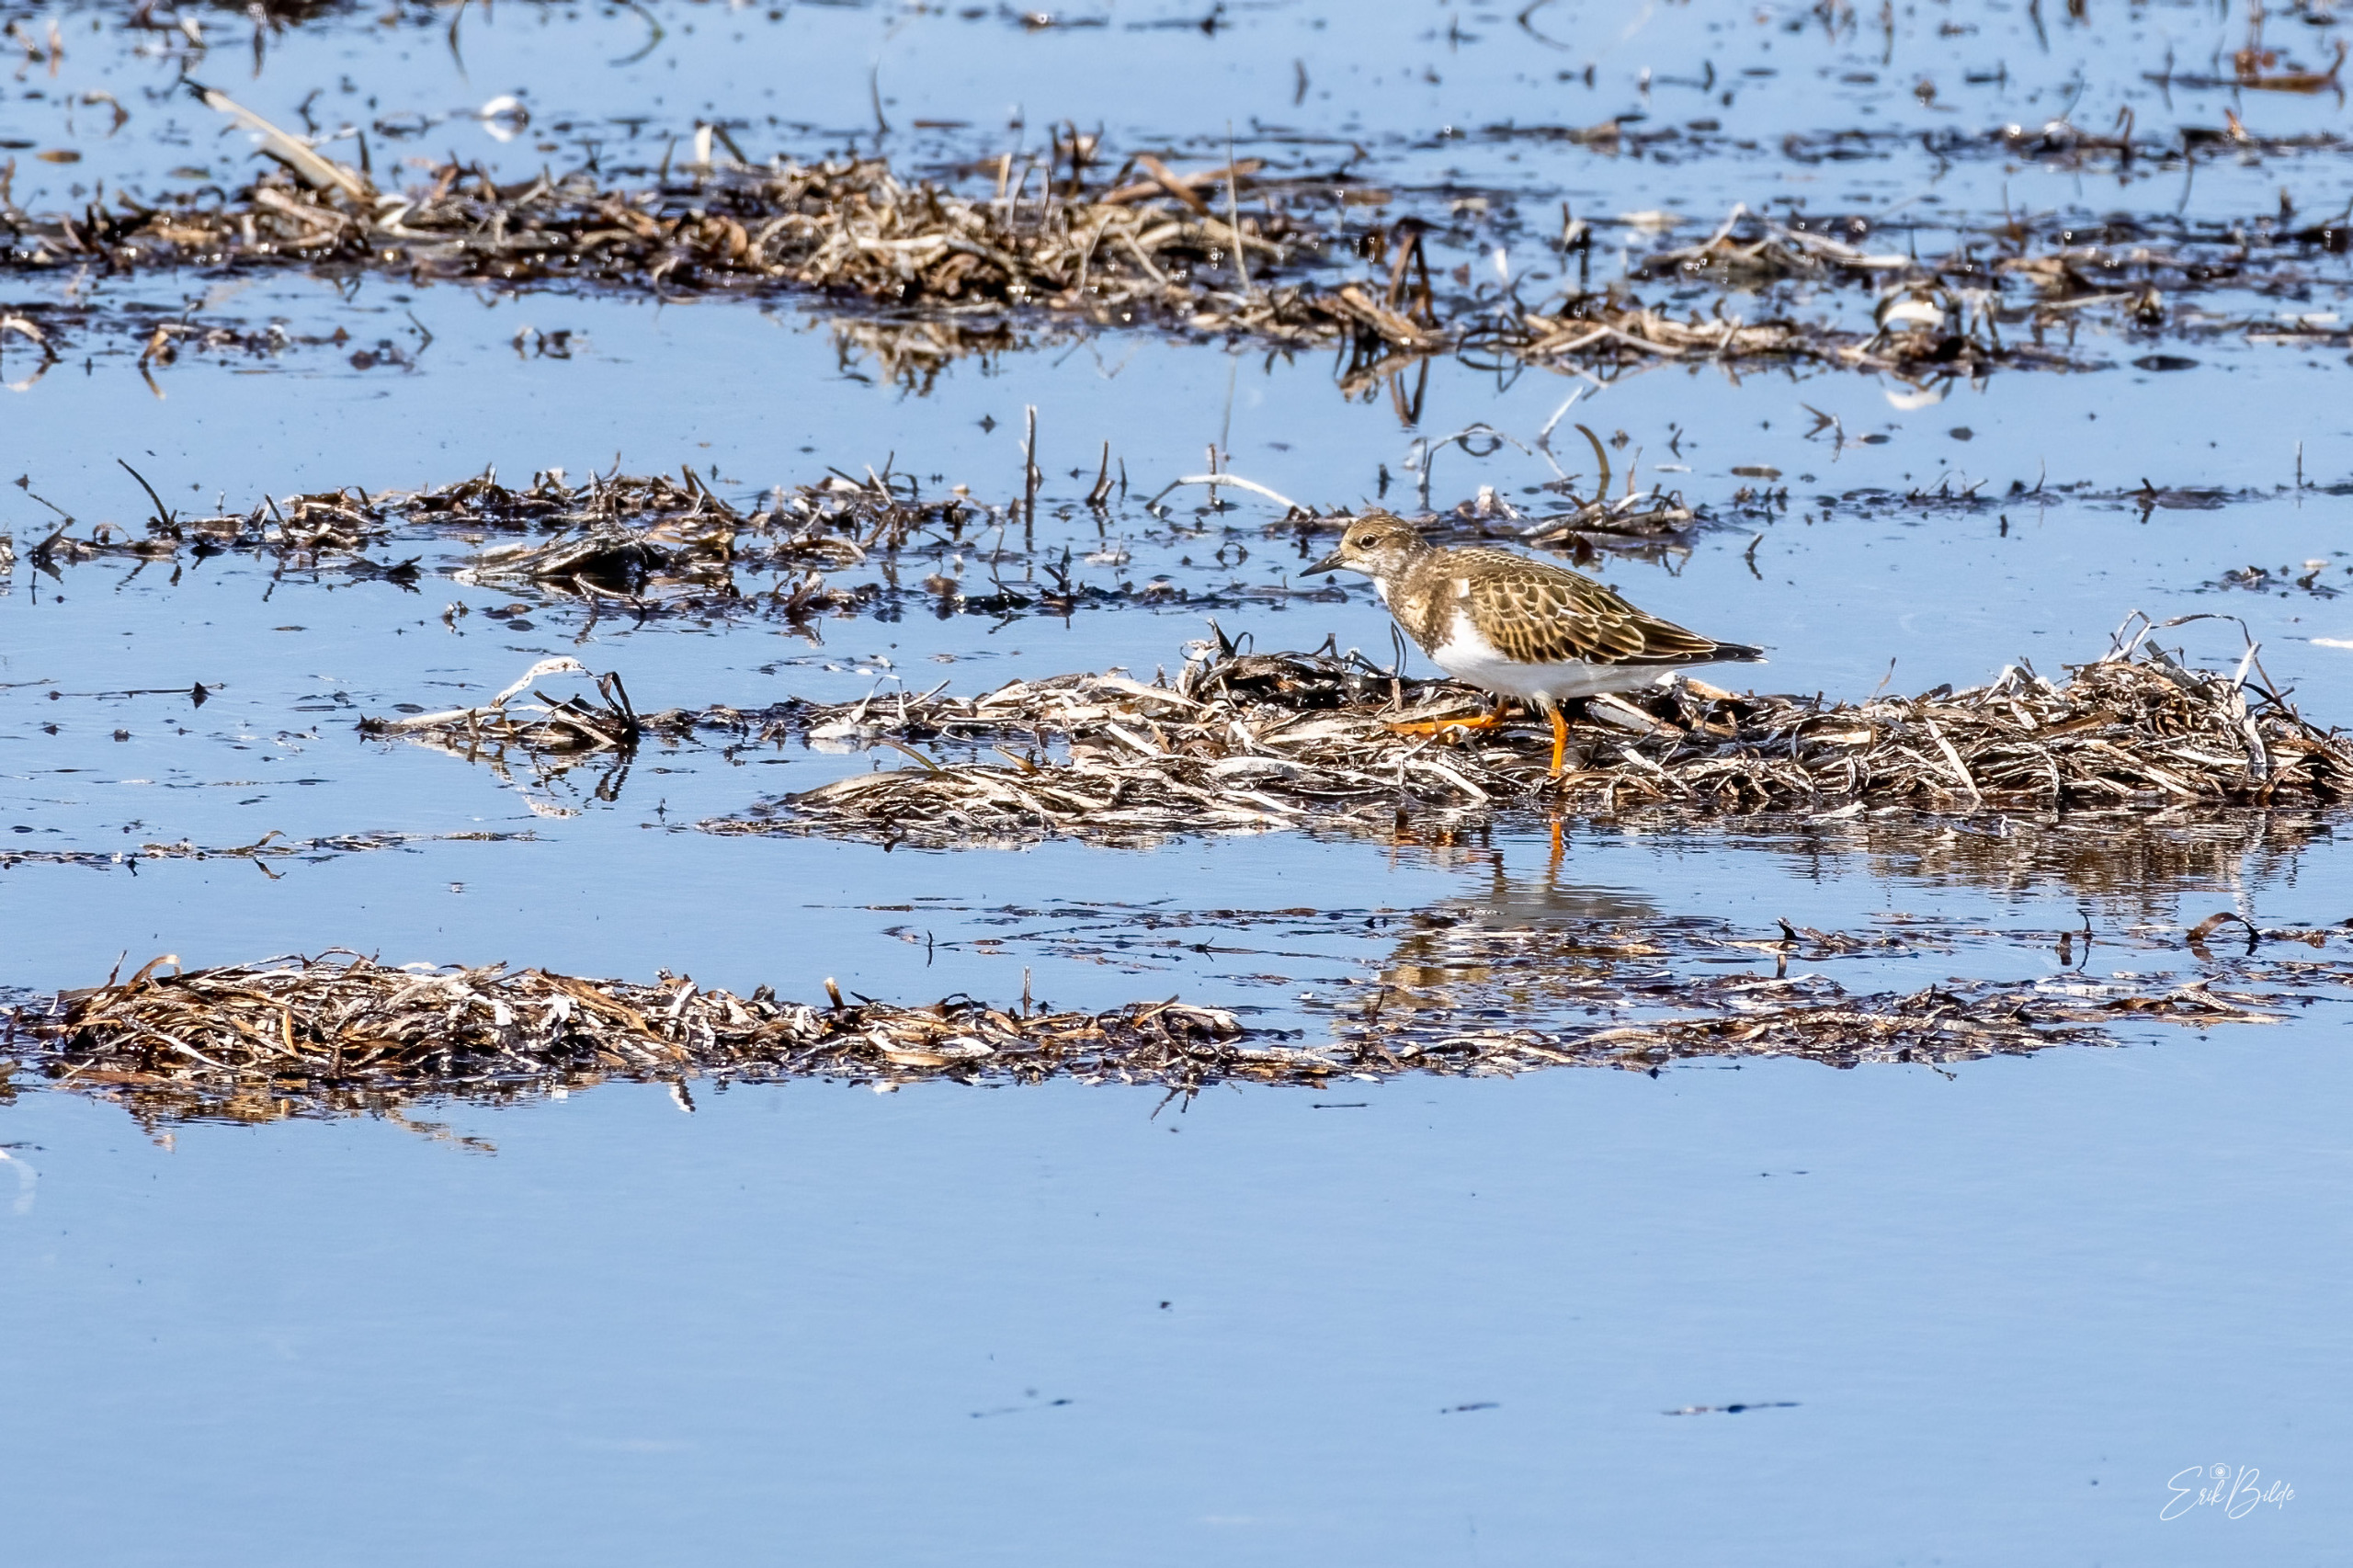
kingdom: Animalia
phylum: Chordata
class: Aves
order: Charadriiformes
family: Scolopacidae
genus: Arenaria
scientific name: Arenaria interpres
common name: Stenvender
